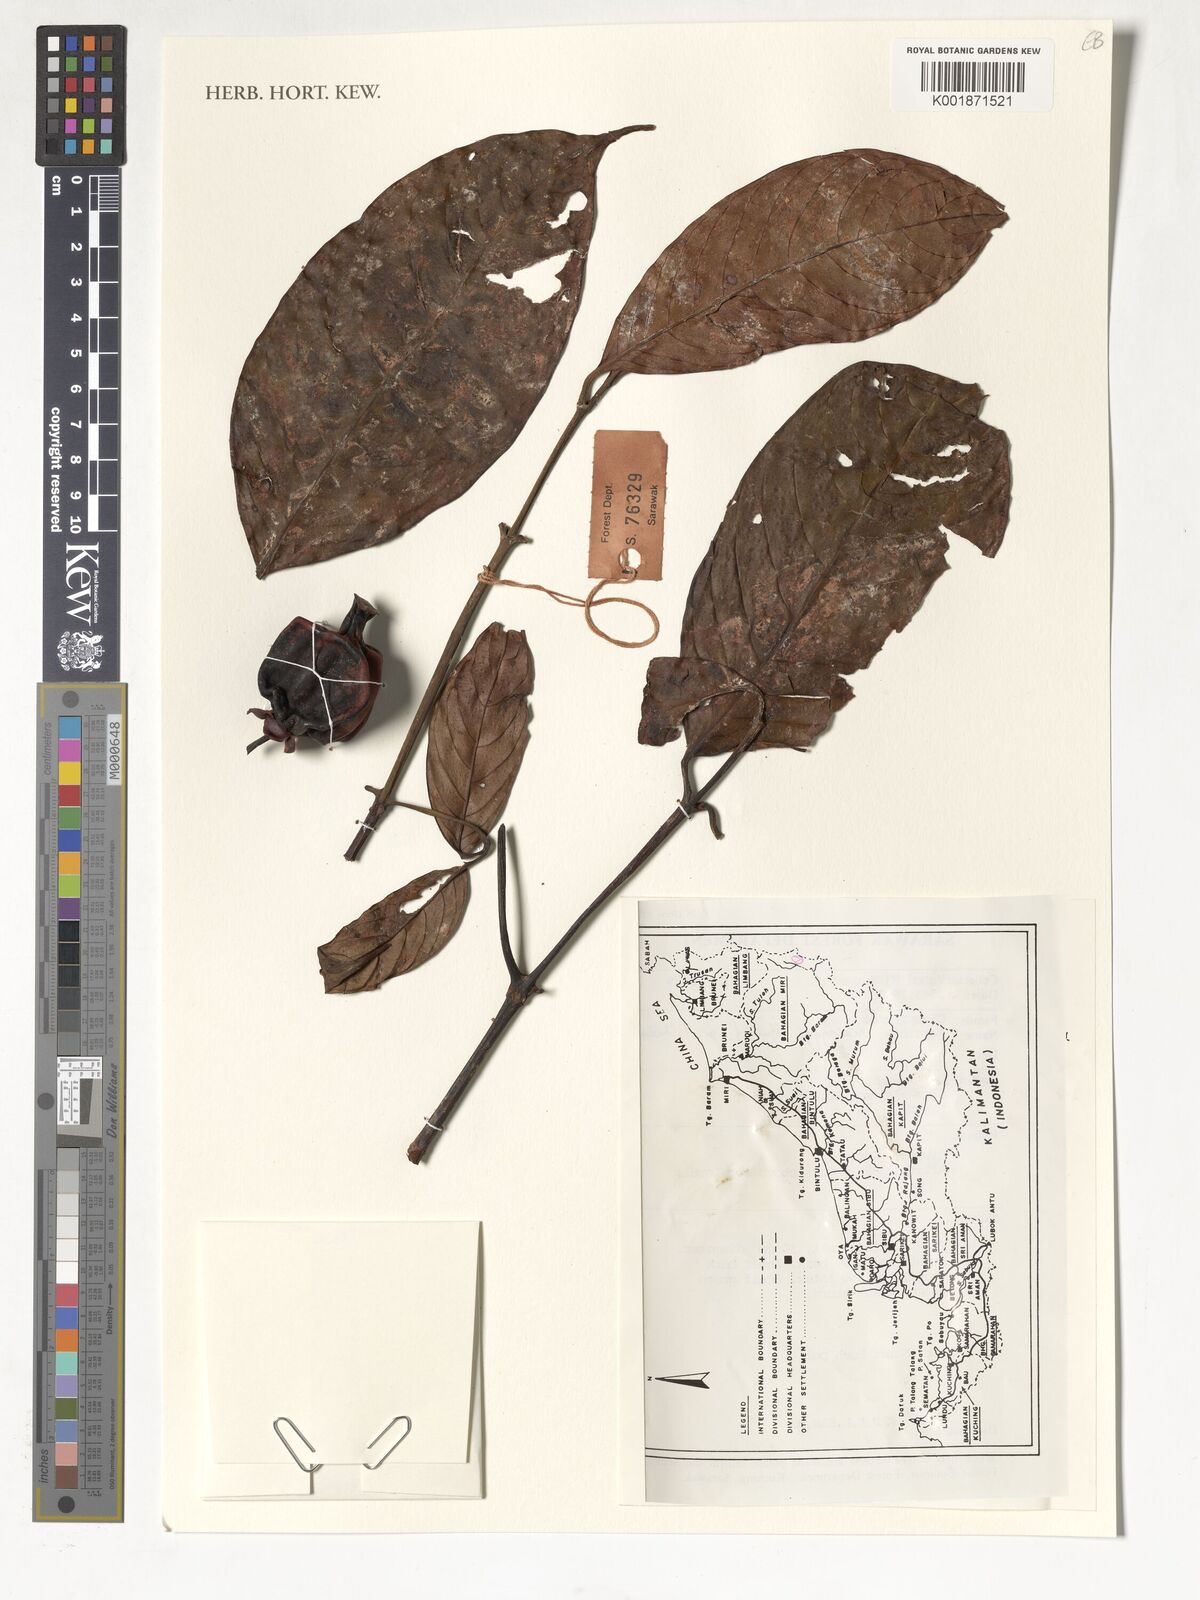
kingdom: Plantae
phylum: Tracheophyta
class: Magnoliopsida
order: Malpighiales
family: Clusiaceae
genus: Garcinia
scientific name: Garcinia maingayi
